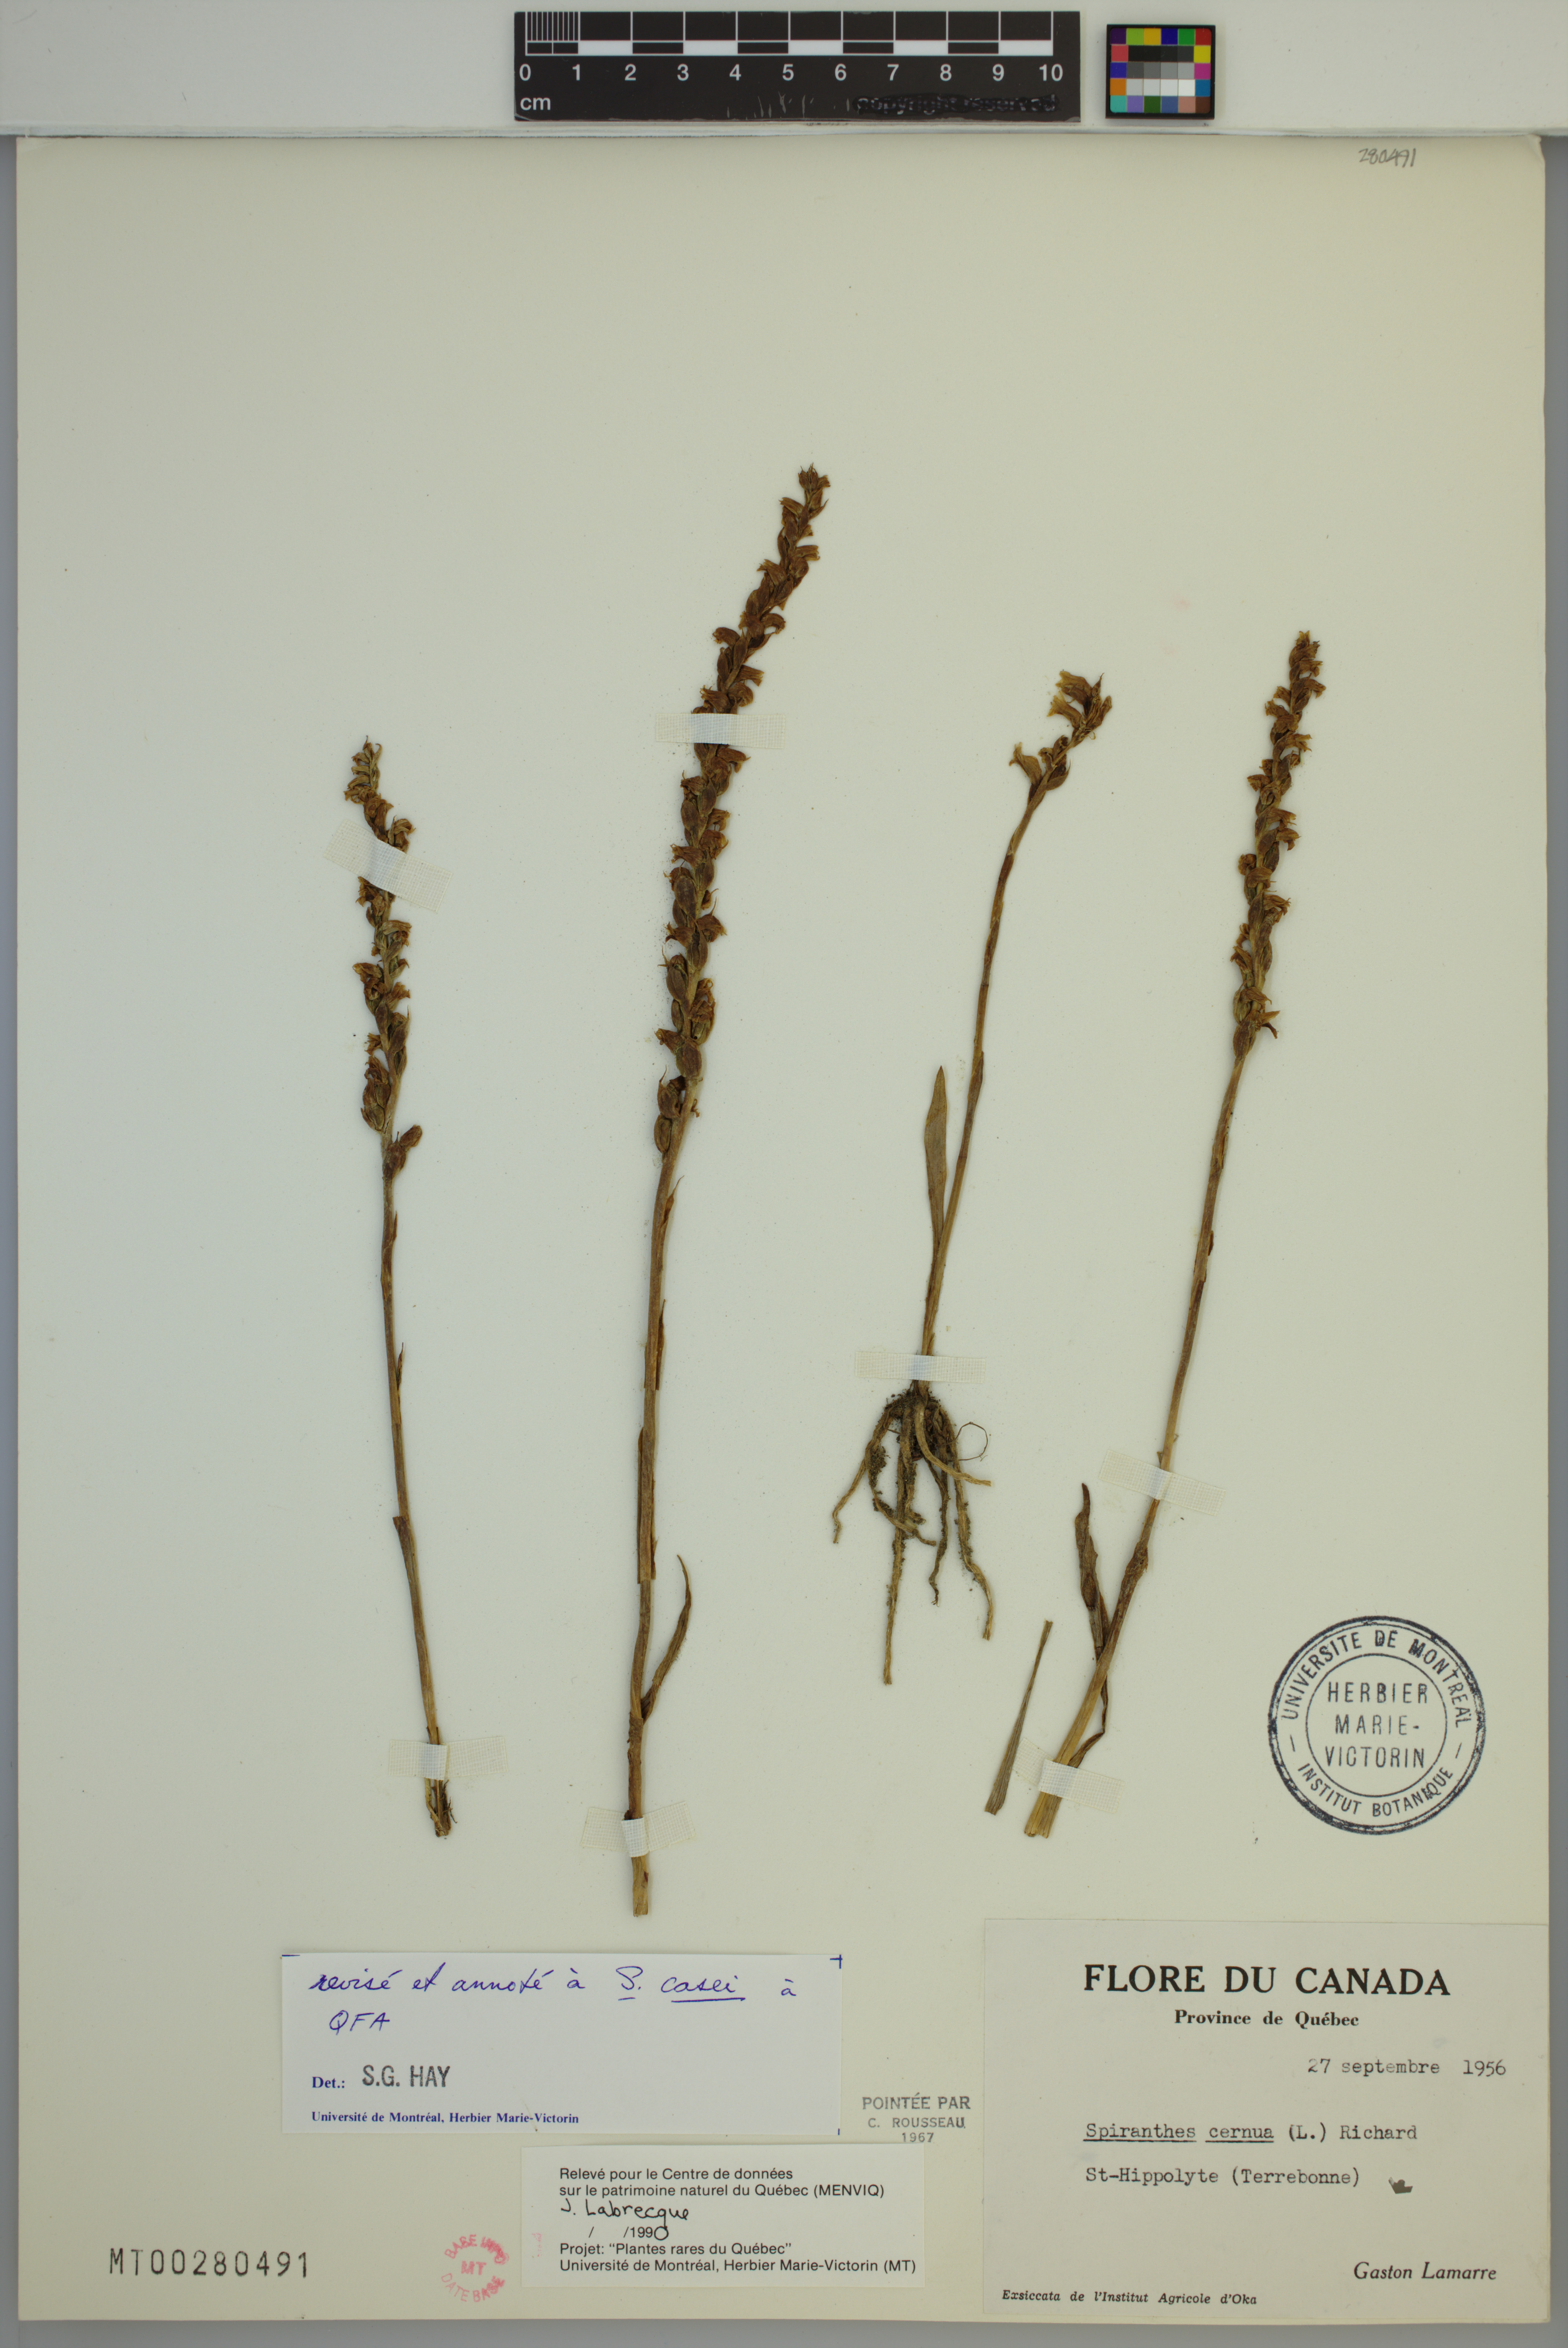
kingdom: Plantae
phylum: Tracheophyta
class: Liliopsida
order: Asparagales
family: Orchidaceae
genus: Spiranthes
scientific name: Spiranthes casei
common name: Case's ladies'-tresses
